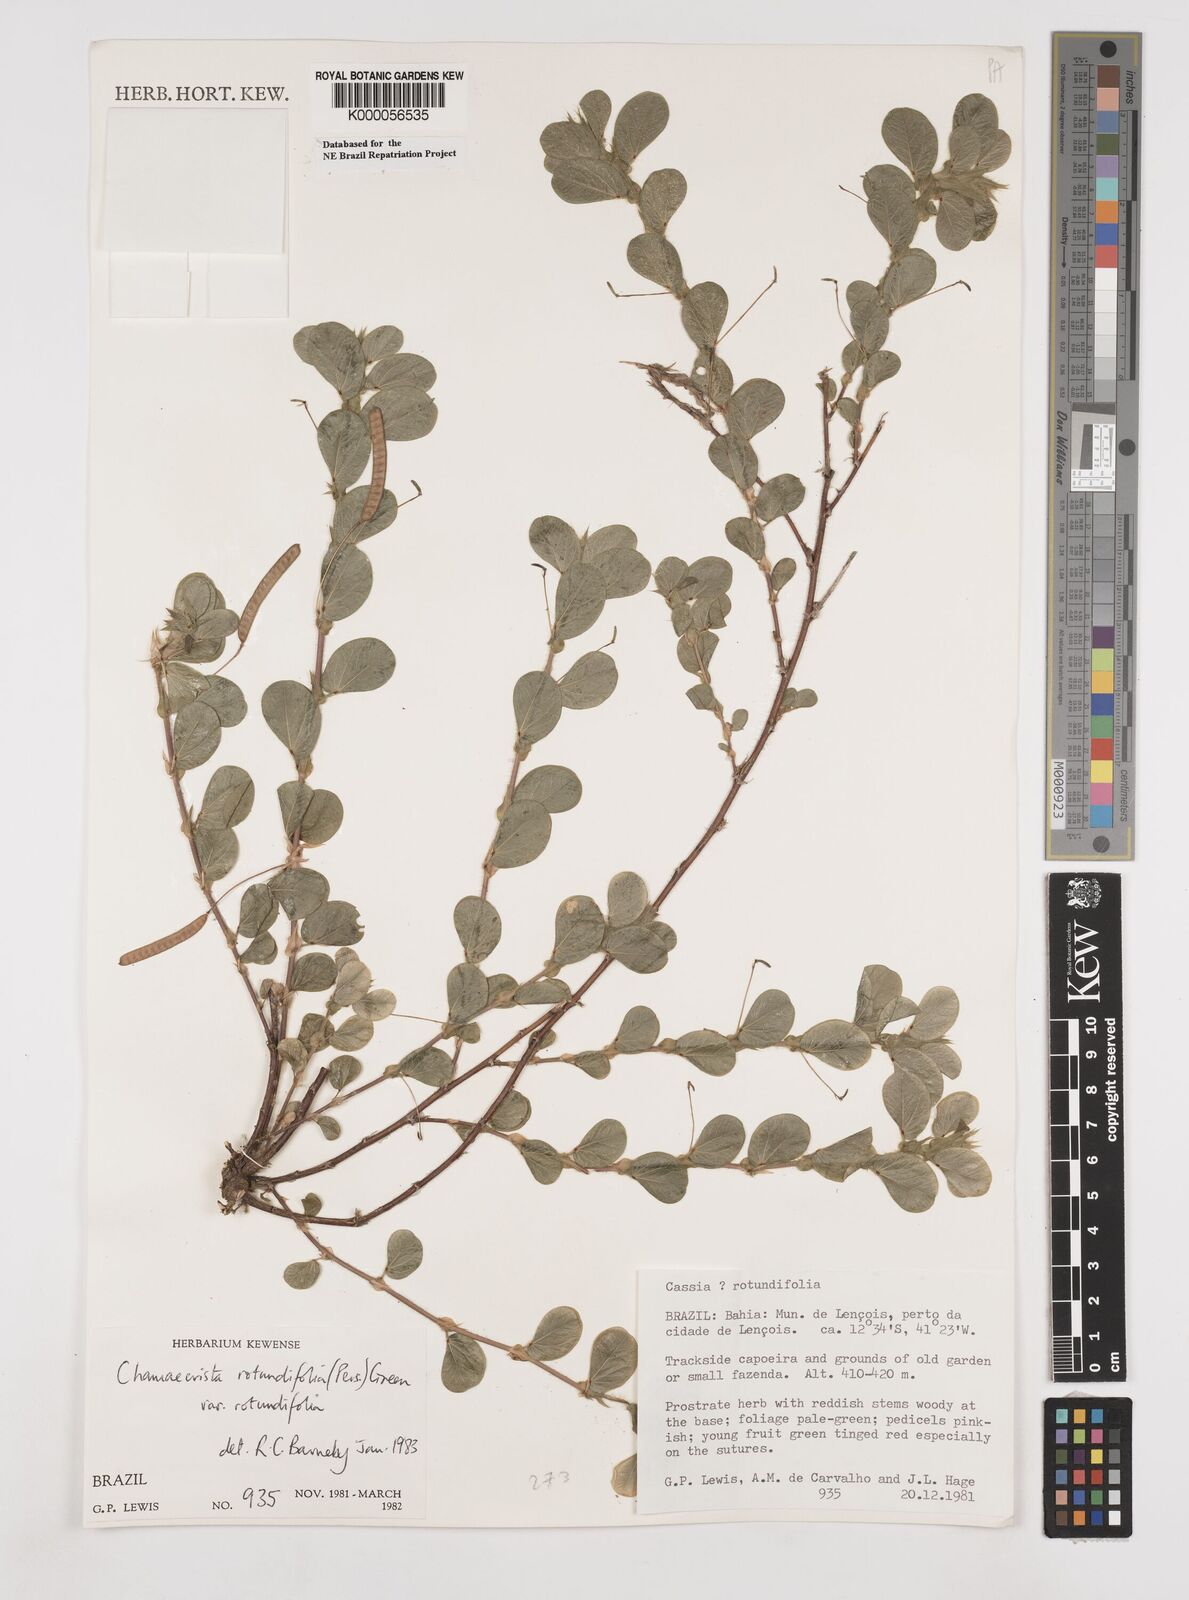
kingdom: Plantae
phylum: Tracheophyta
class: Magnoliopsida
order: Fabales
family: Fabaceae
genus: Chamaecrista
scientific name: Chamaecrista rotundifolia
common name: Round-leaf cassia
